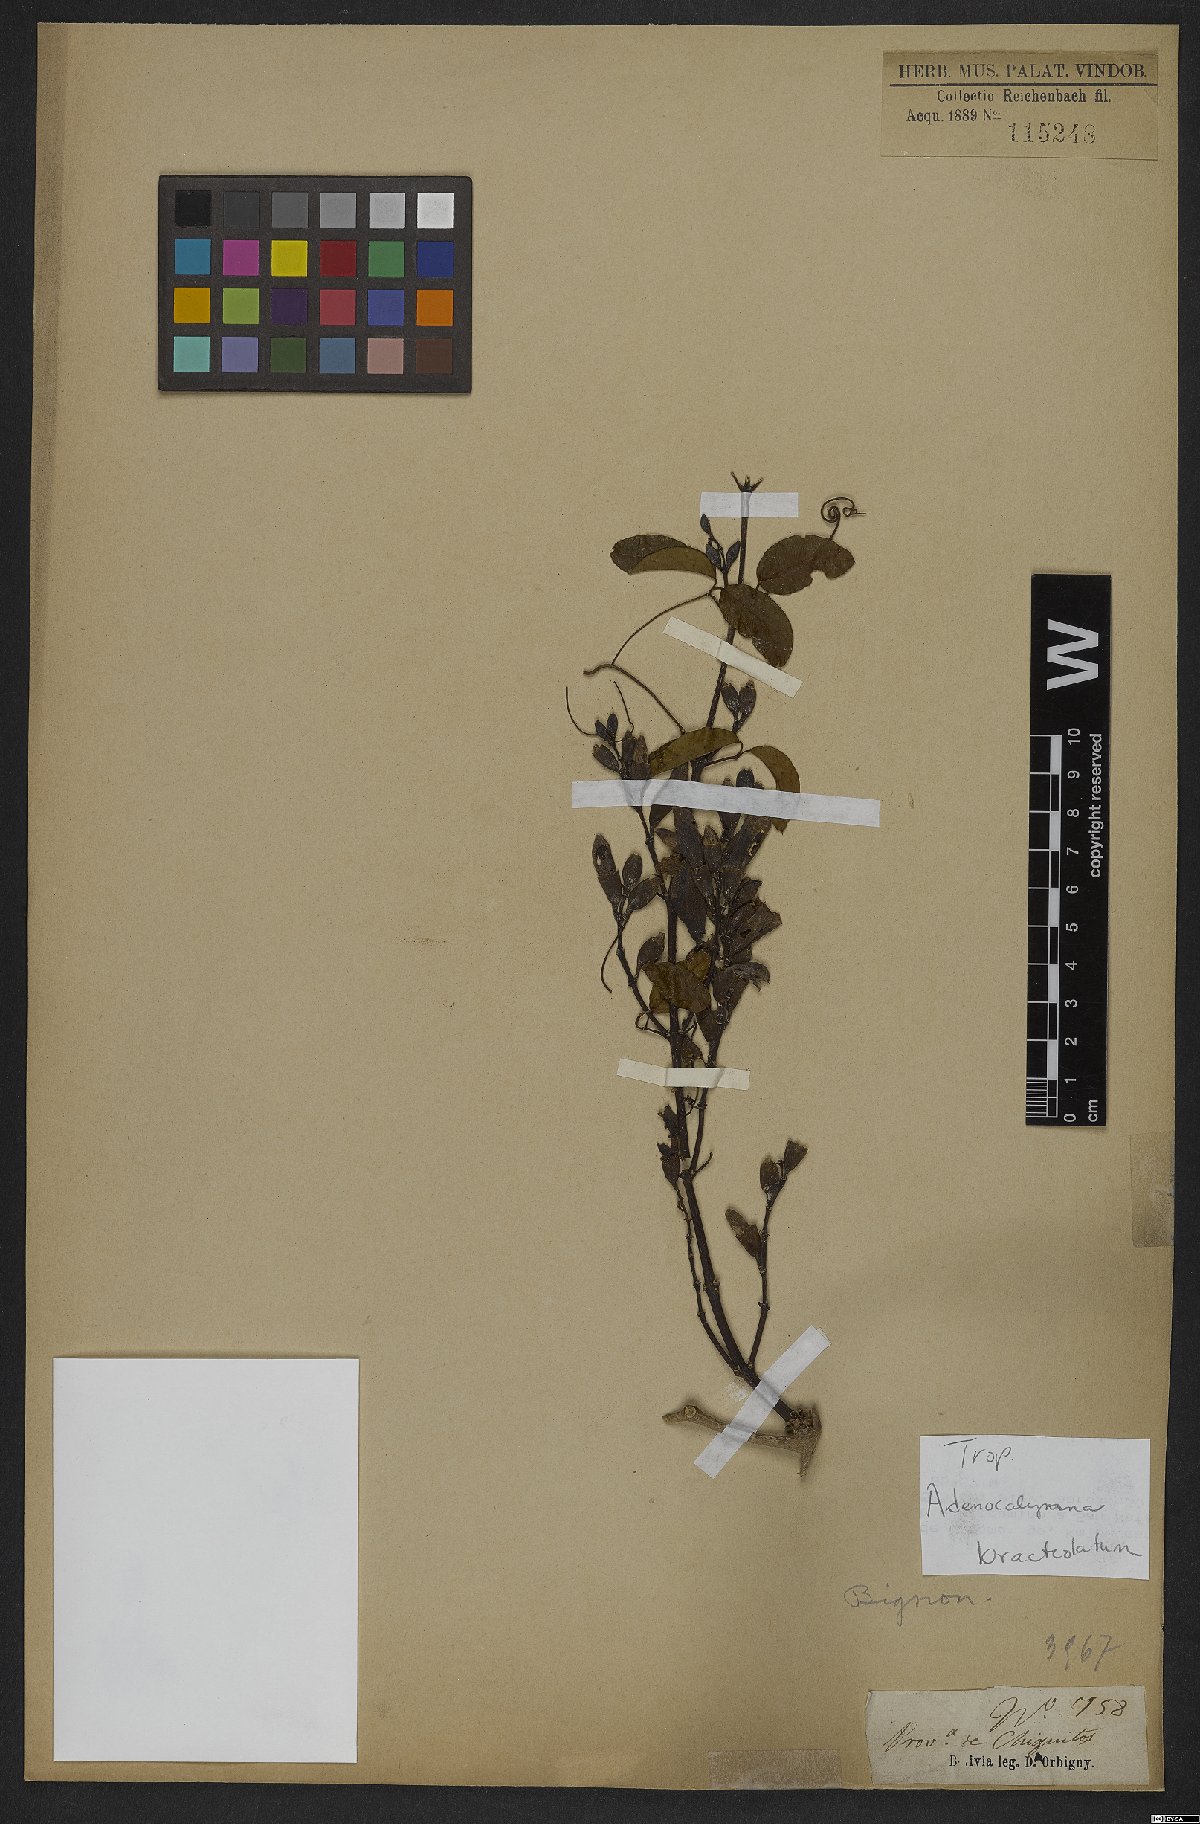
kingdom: Plantae
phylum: Tracheophyta
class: Magnoliopsida
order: Lamiales
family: Bignoniaceae
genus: Adenocalymma
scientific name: Adenocalymma bracteatum
